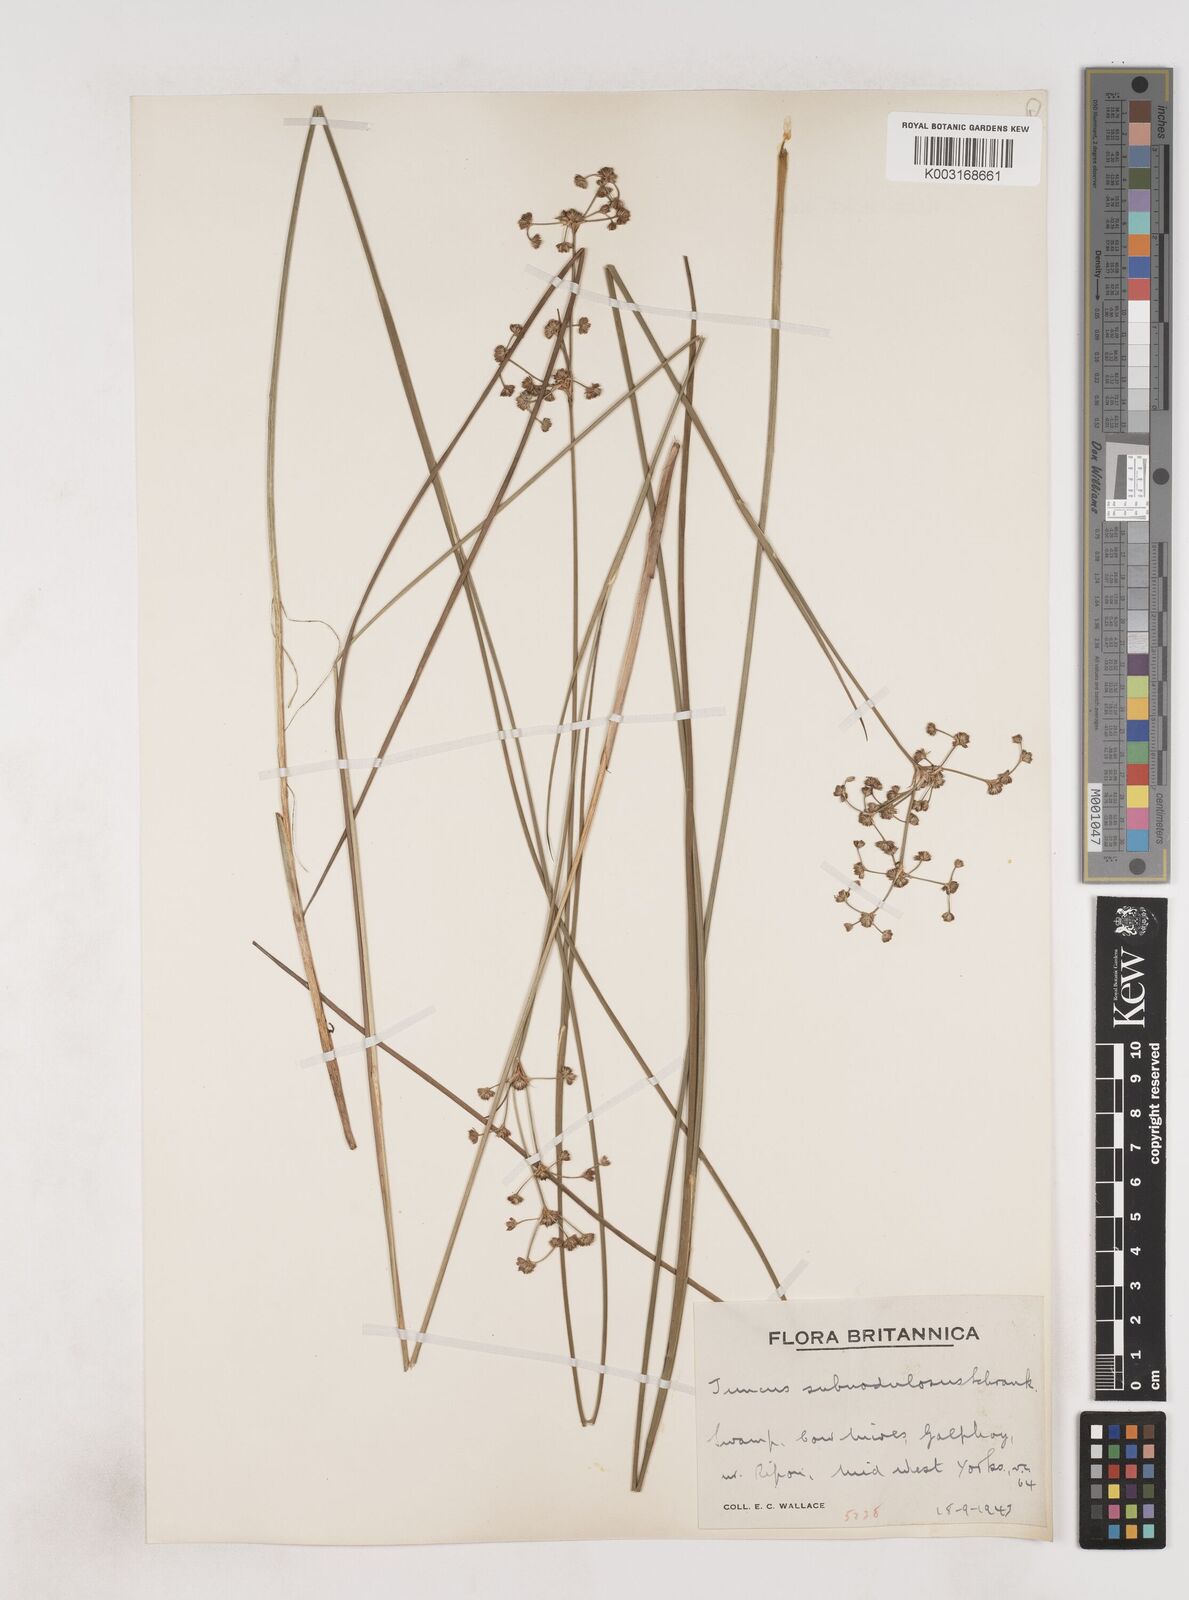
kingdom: Plantae
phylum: Tracheophyta
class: Liliopsida
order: Poales
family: Juncaceae
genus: Juncus
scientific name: Juncus subnodulosus
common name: Blunt-flowered rush
